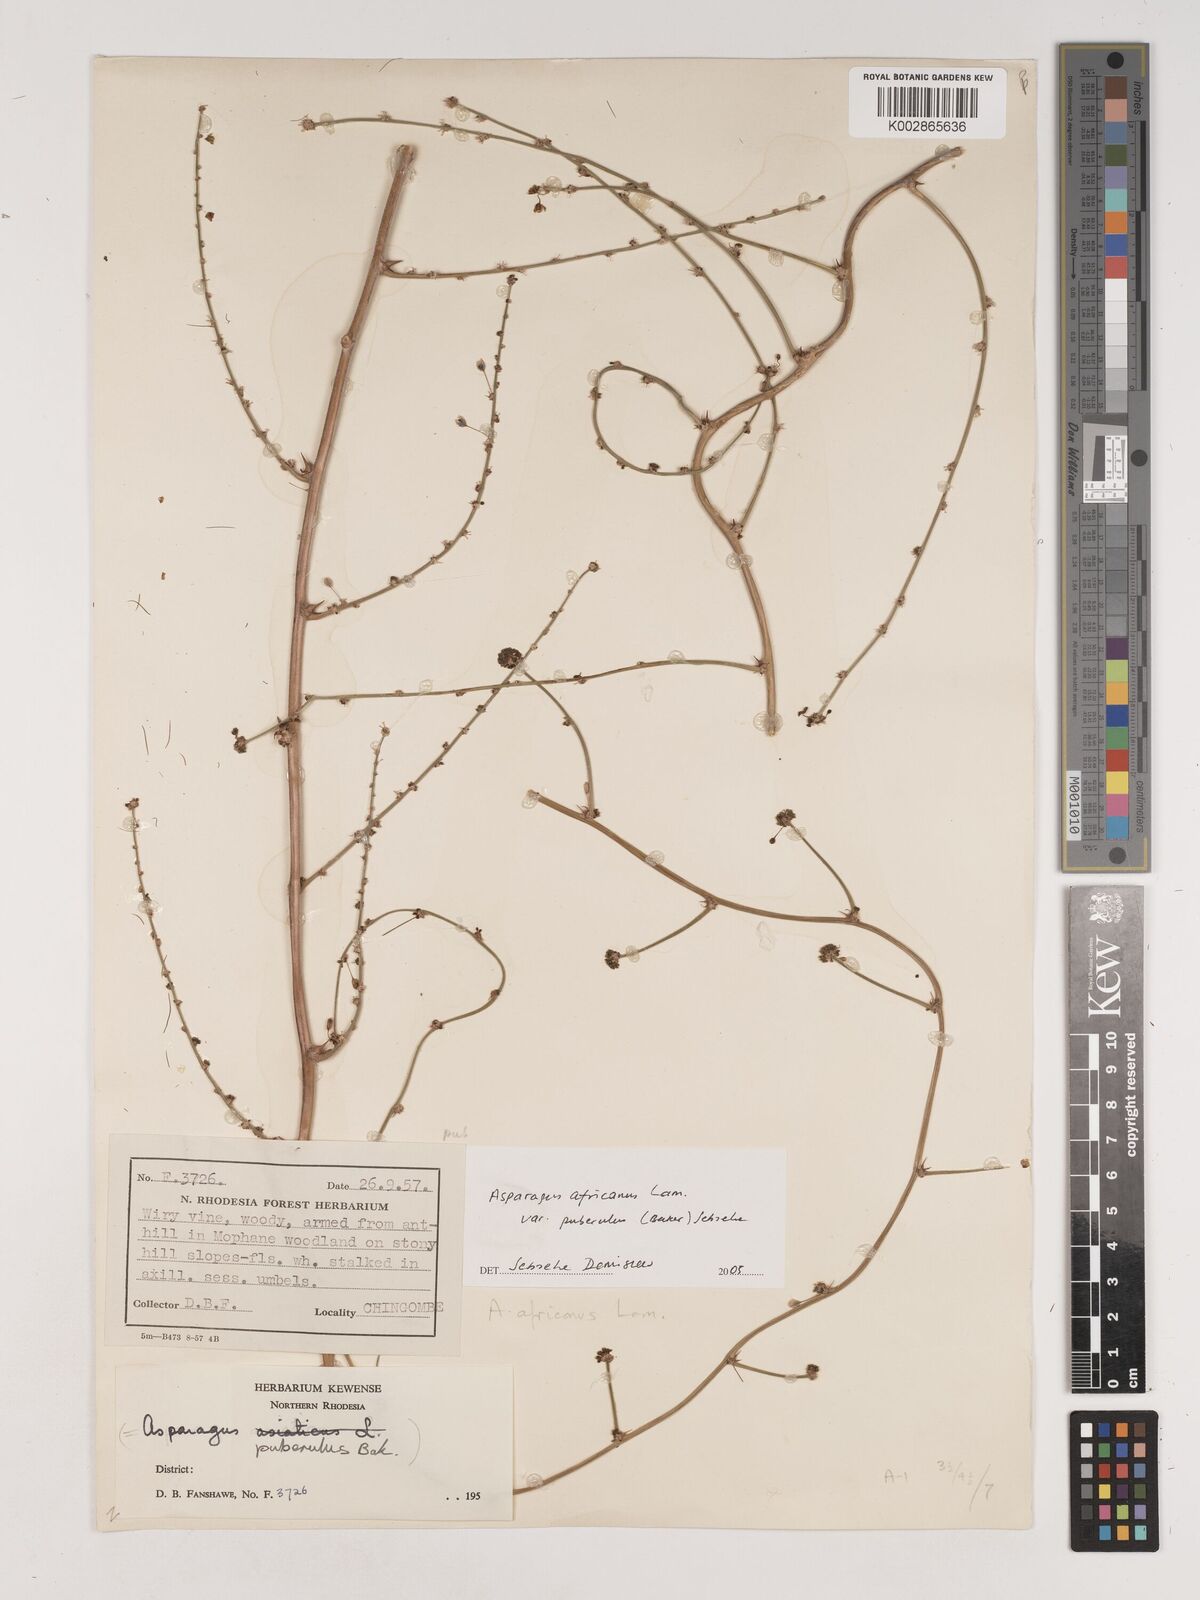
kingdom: Plantae
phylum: Tracheophyta
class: Liliopsida
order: Asparagales
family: Asparagaceae
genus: Asparagus
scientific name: Asparagus africanus
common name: Asparagus-fern
